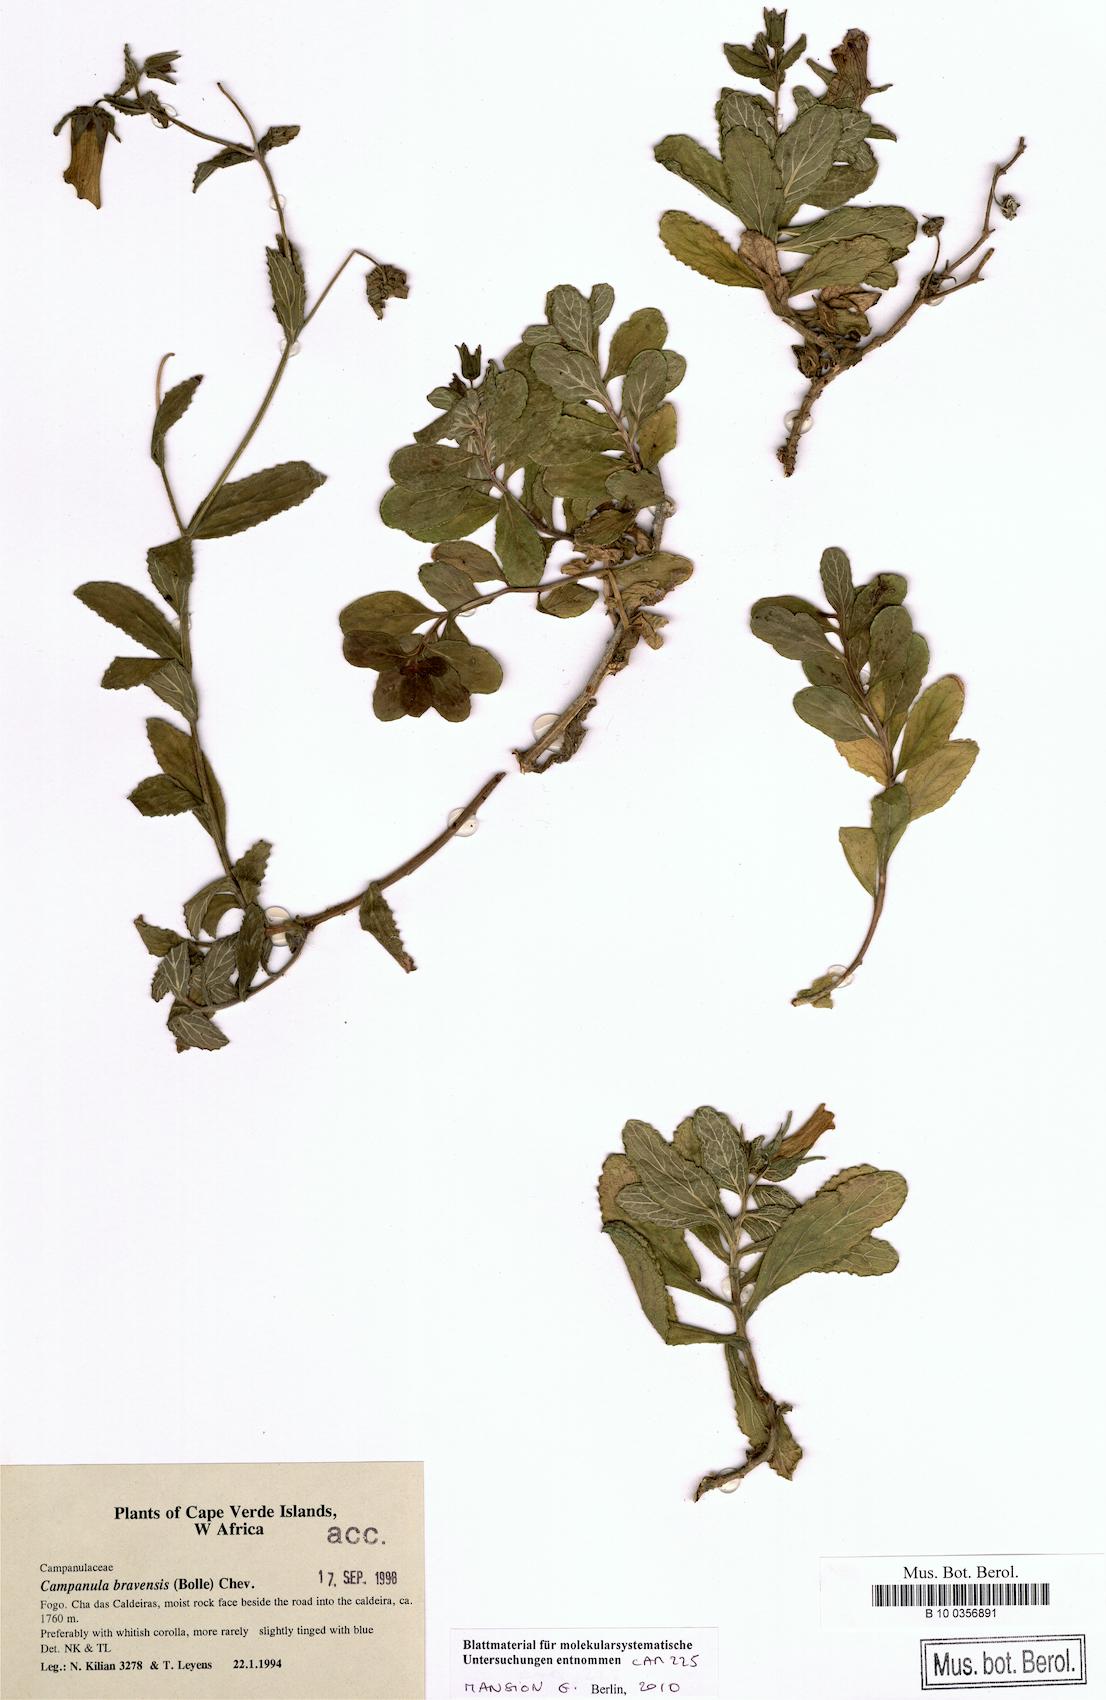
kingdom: Plantae
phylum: Tracheophyta
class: Magnoliopsida
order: Asterales
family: Campanulaceae
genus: Campanula
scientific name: Campanula bravensis
